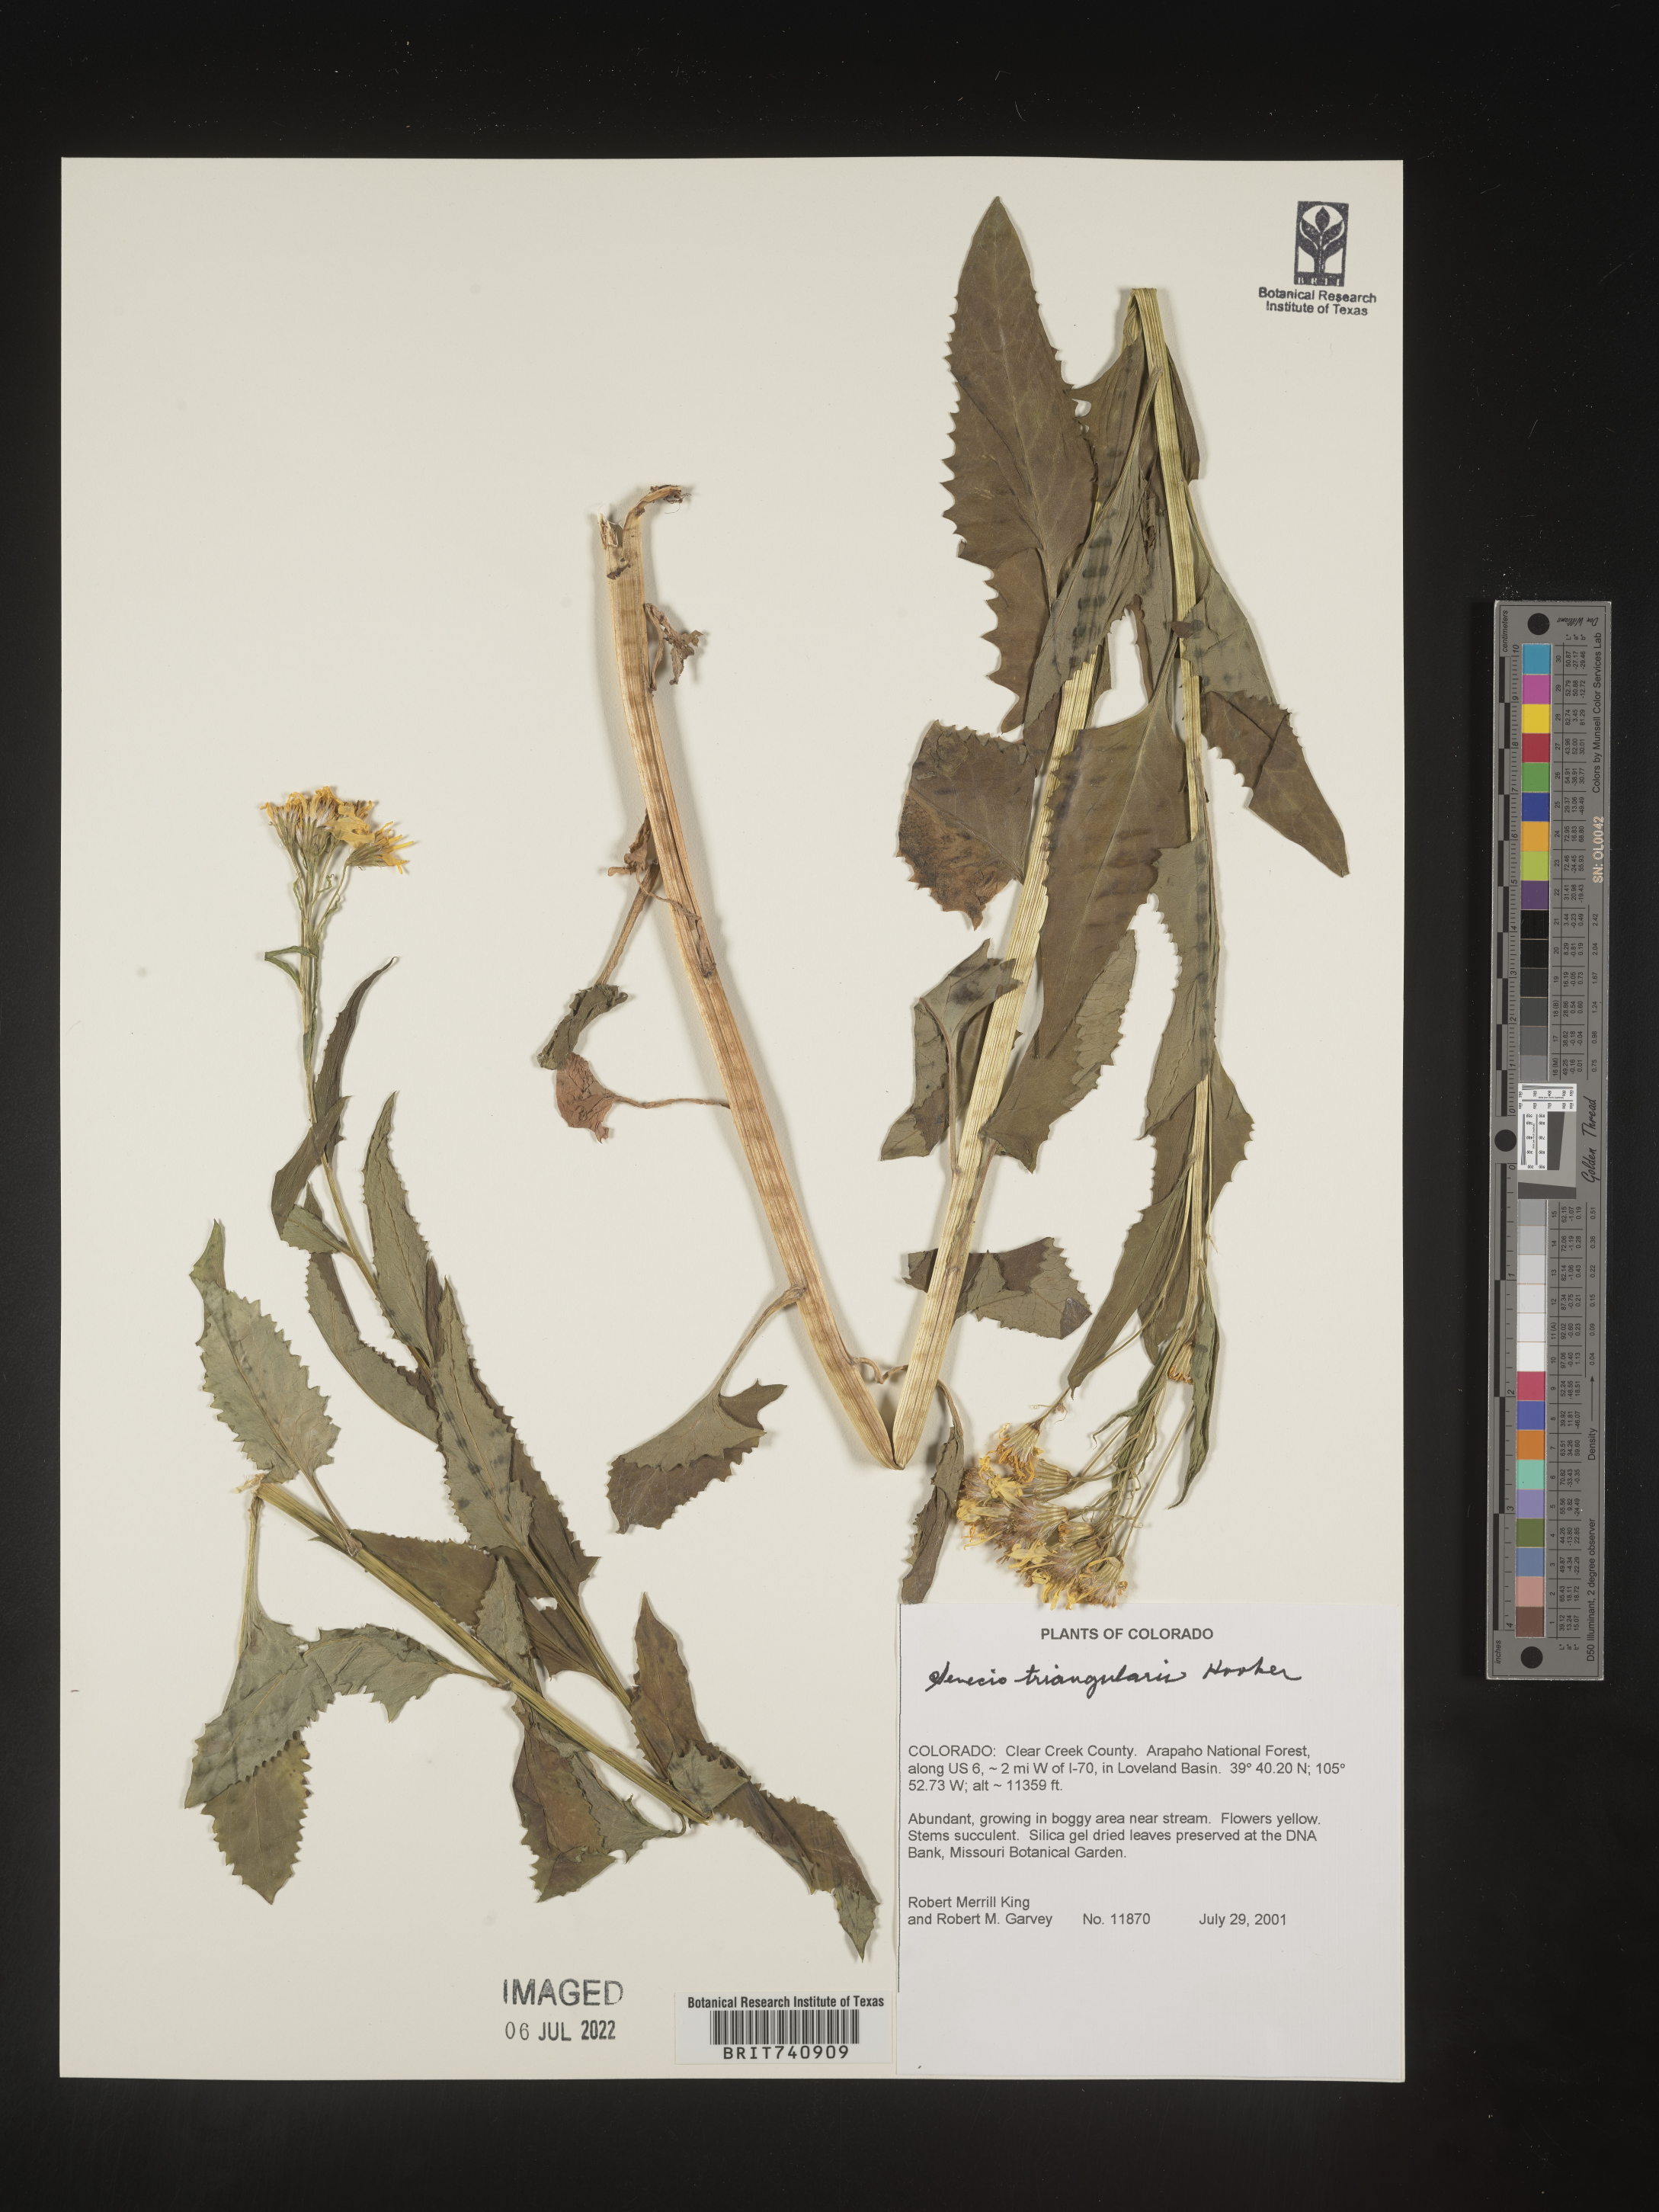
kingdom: Plantae
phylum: Tracheophyta
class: Magnoliopsida
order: Asterales
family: Asteraceae
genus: Senecio
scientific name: Senecio triangularis
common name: Arrowleaf butterweed
